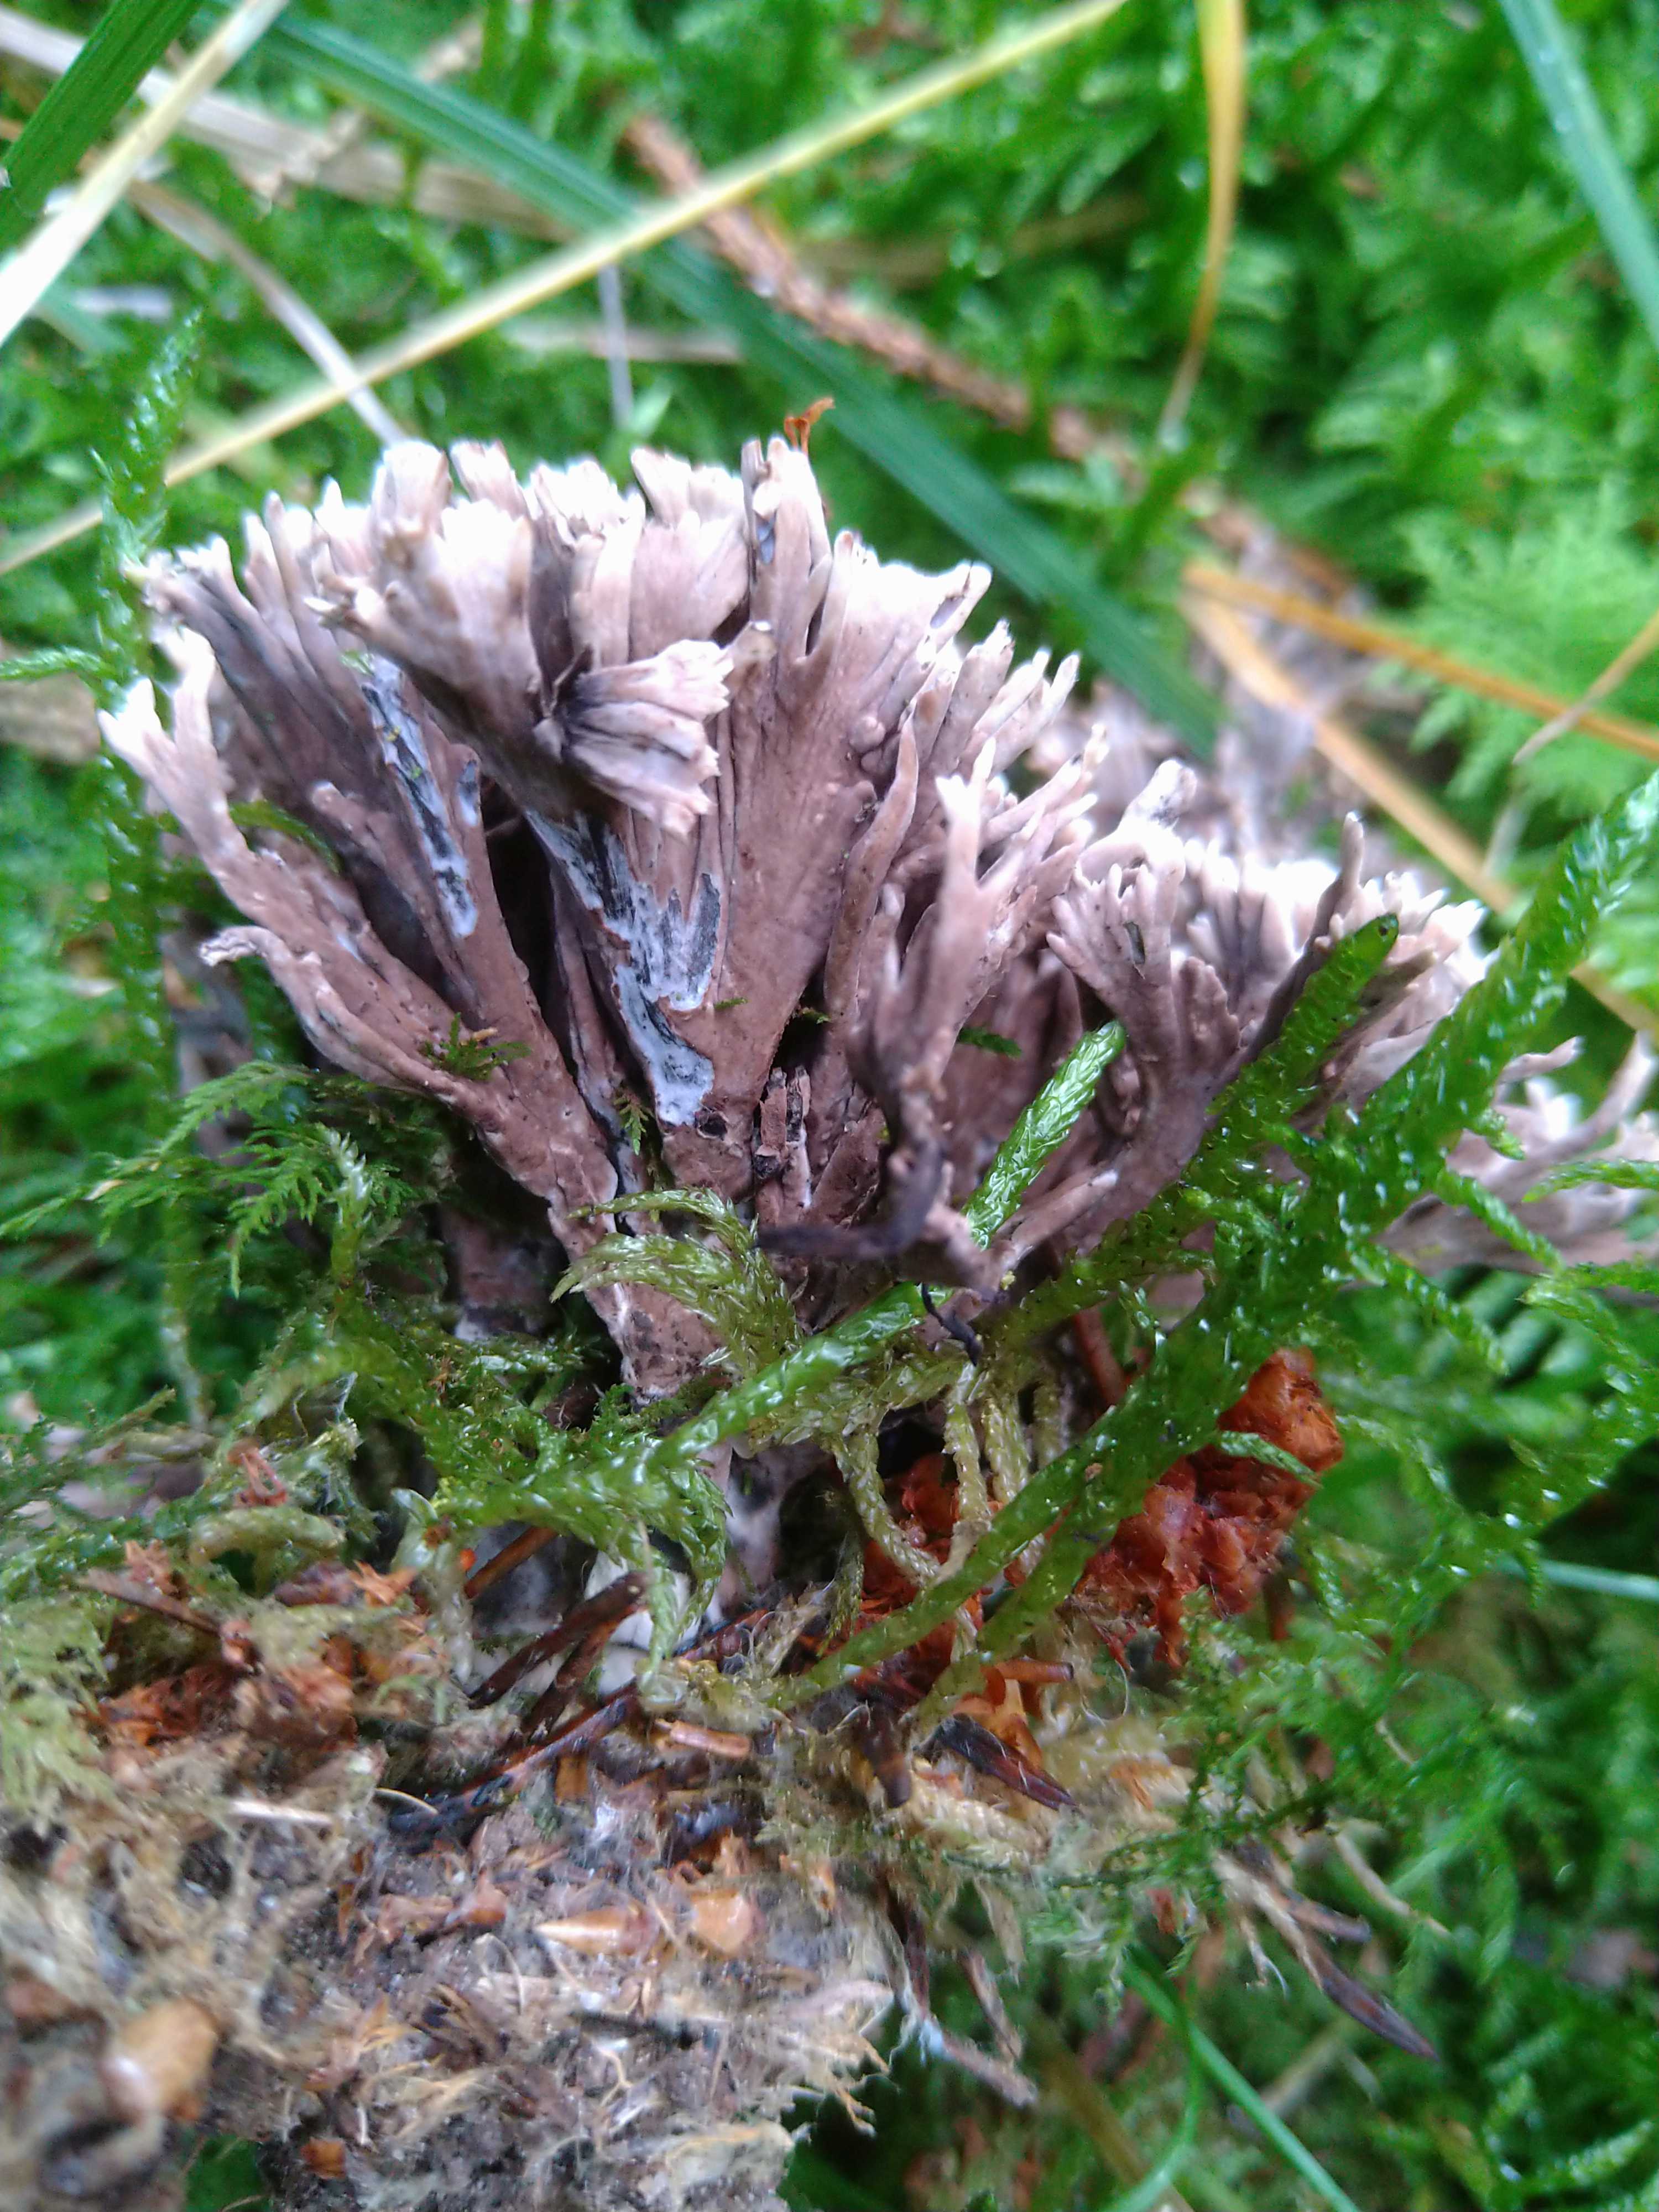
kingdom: Fungi
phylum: Basidiomycota
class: Agaricomycetes
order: Thelephorales
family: Thelephoraceae
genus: Thelephora
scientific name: Thelephora palmata
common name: grenet frynsesvamp
